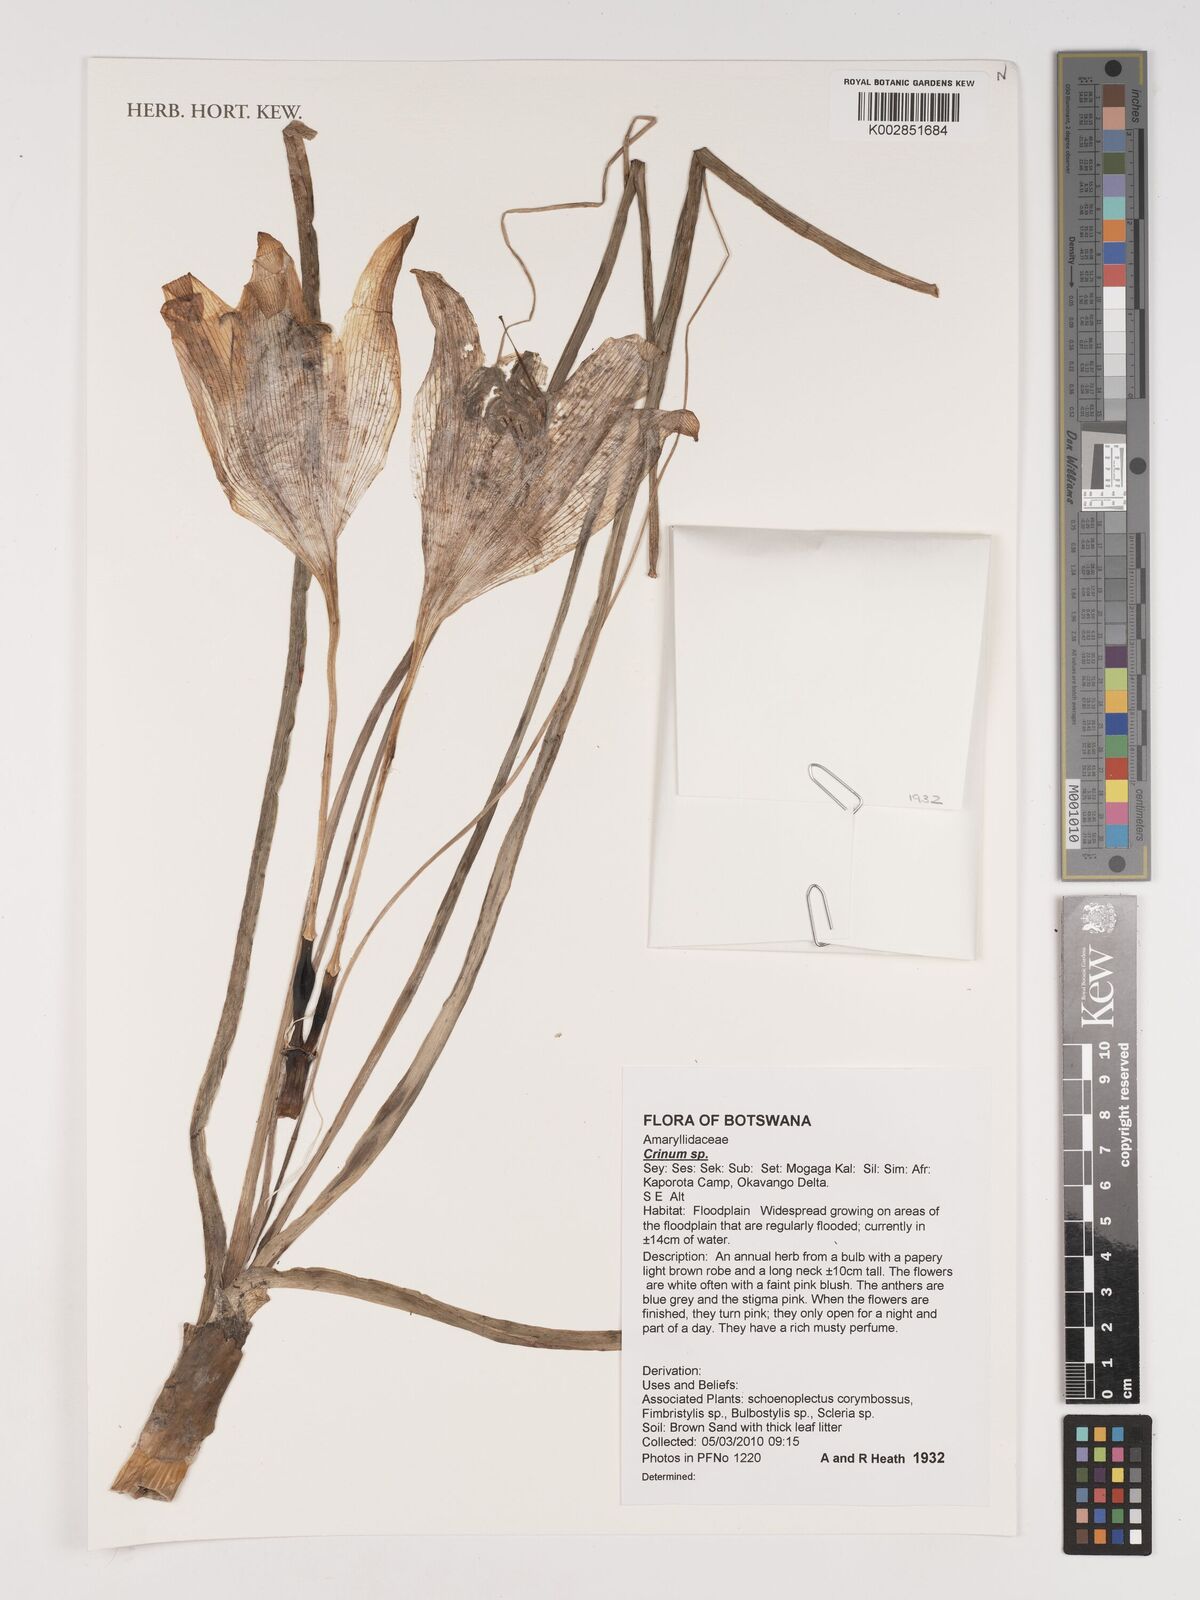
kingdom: Plantae
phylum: Tracheophyta
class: Liliopsida
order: Asparagales
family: Amaryllidaceae
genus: Crinum
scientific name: Crinum
